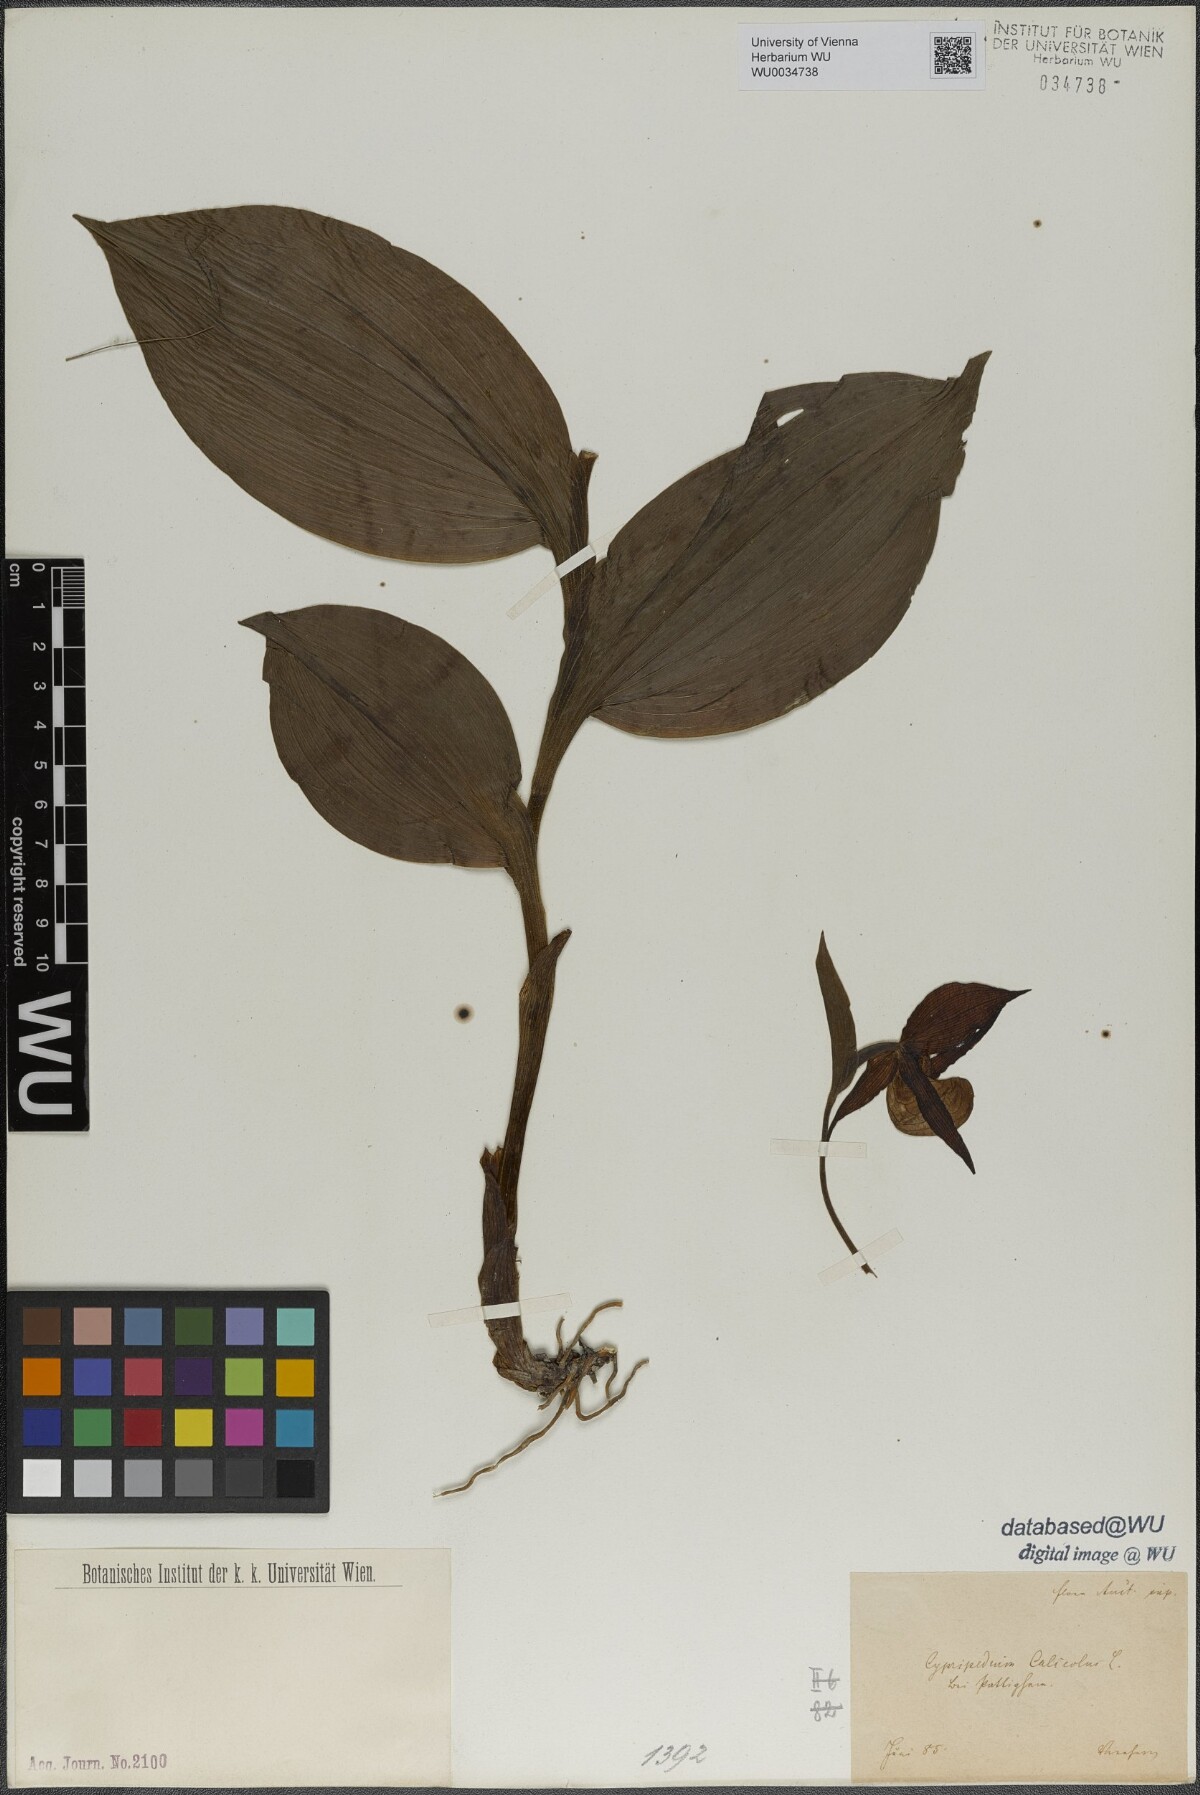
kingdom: Plantae
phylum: Tracheophyta
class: Liliopsida
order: Asparagales
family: Orchidaceae
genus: Cypripedium
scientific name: Cypripedium calceolus
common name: Lady's-slipper
